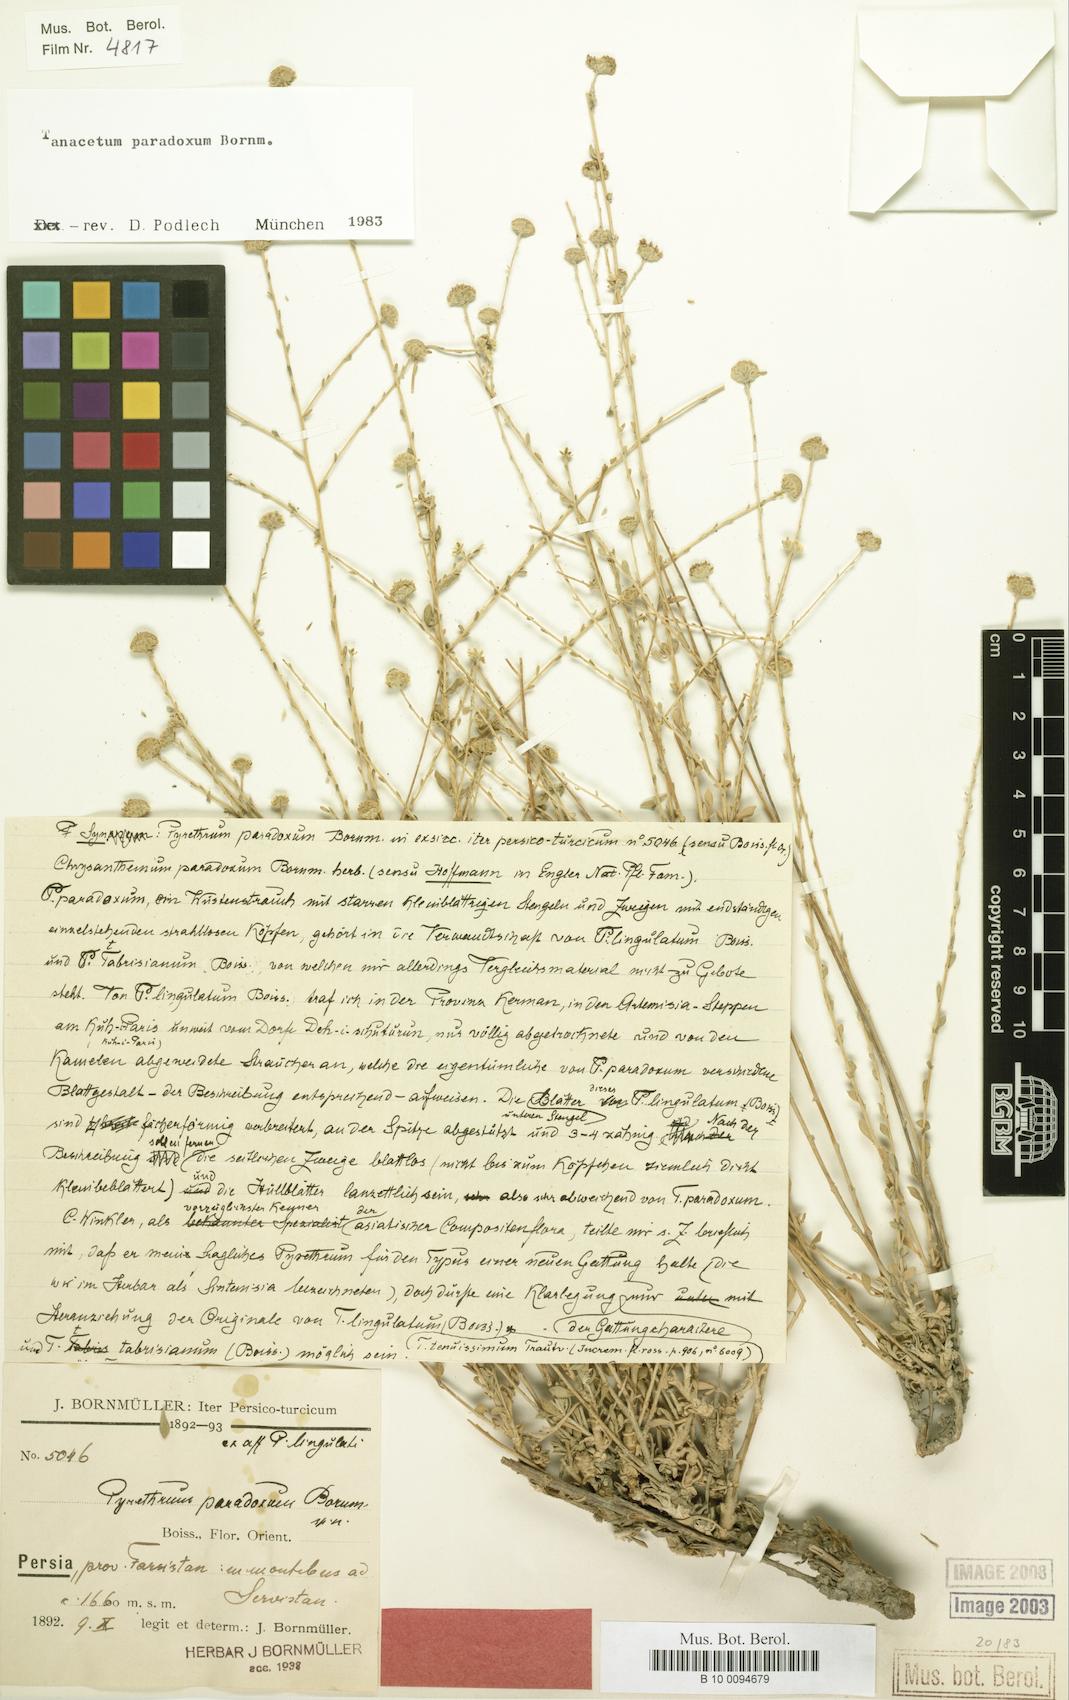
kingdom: Plantae
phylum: Tracheophyta
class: Magnoliopsida
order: Asterales
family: Asteraceae
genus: Tanacetum
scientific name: Tanacetum paradoxum
